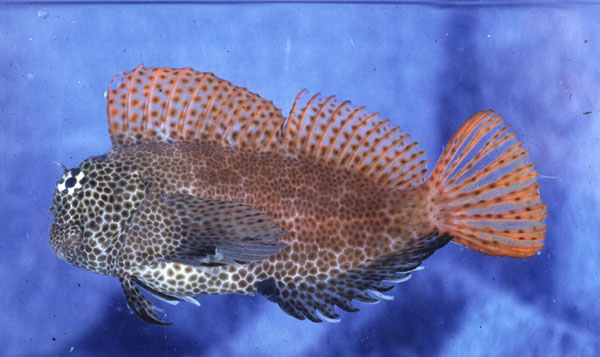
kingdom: Animalia
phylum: Chordata
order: Perciformes
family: Blenniidae
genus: Exallias
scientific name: Exallias brevis
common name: Leopard blenny
